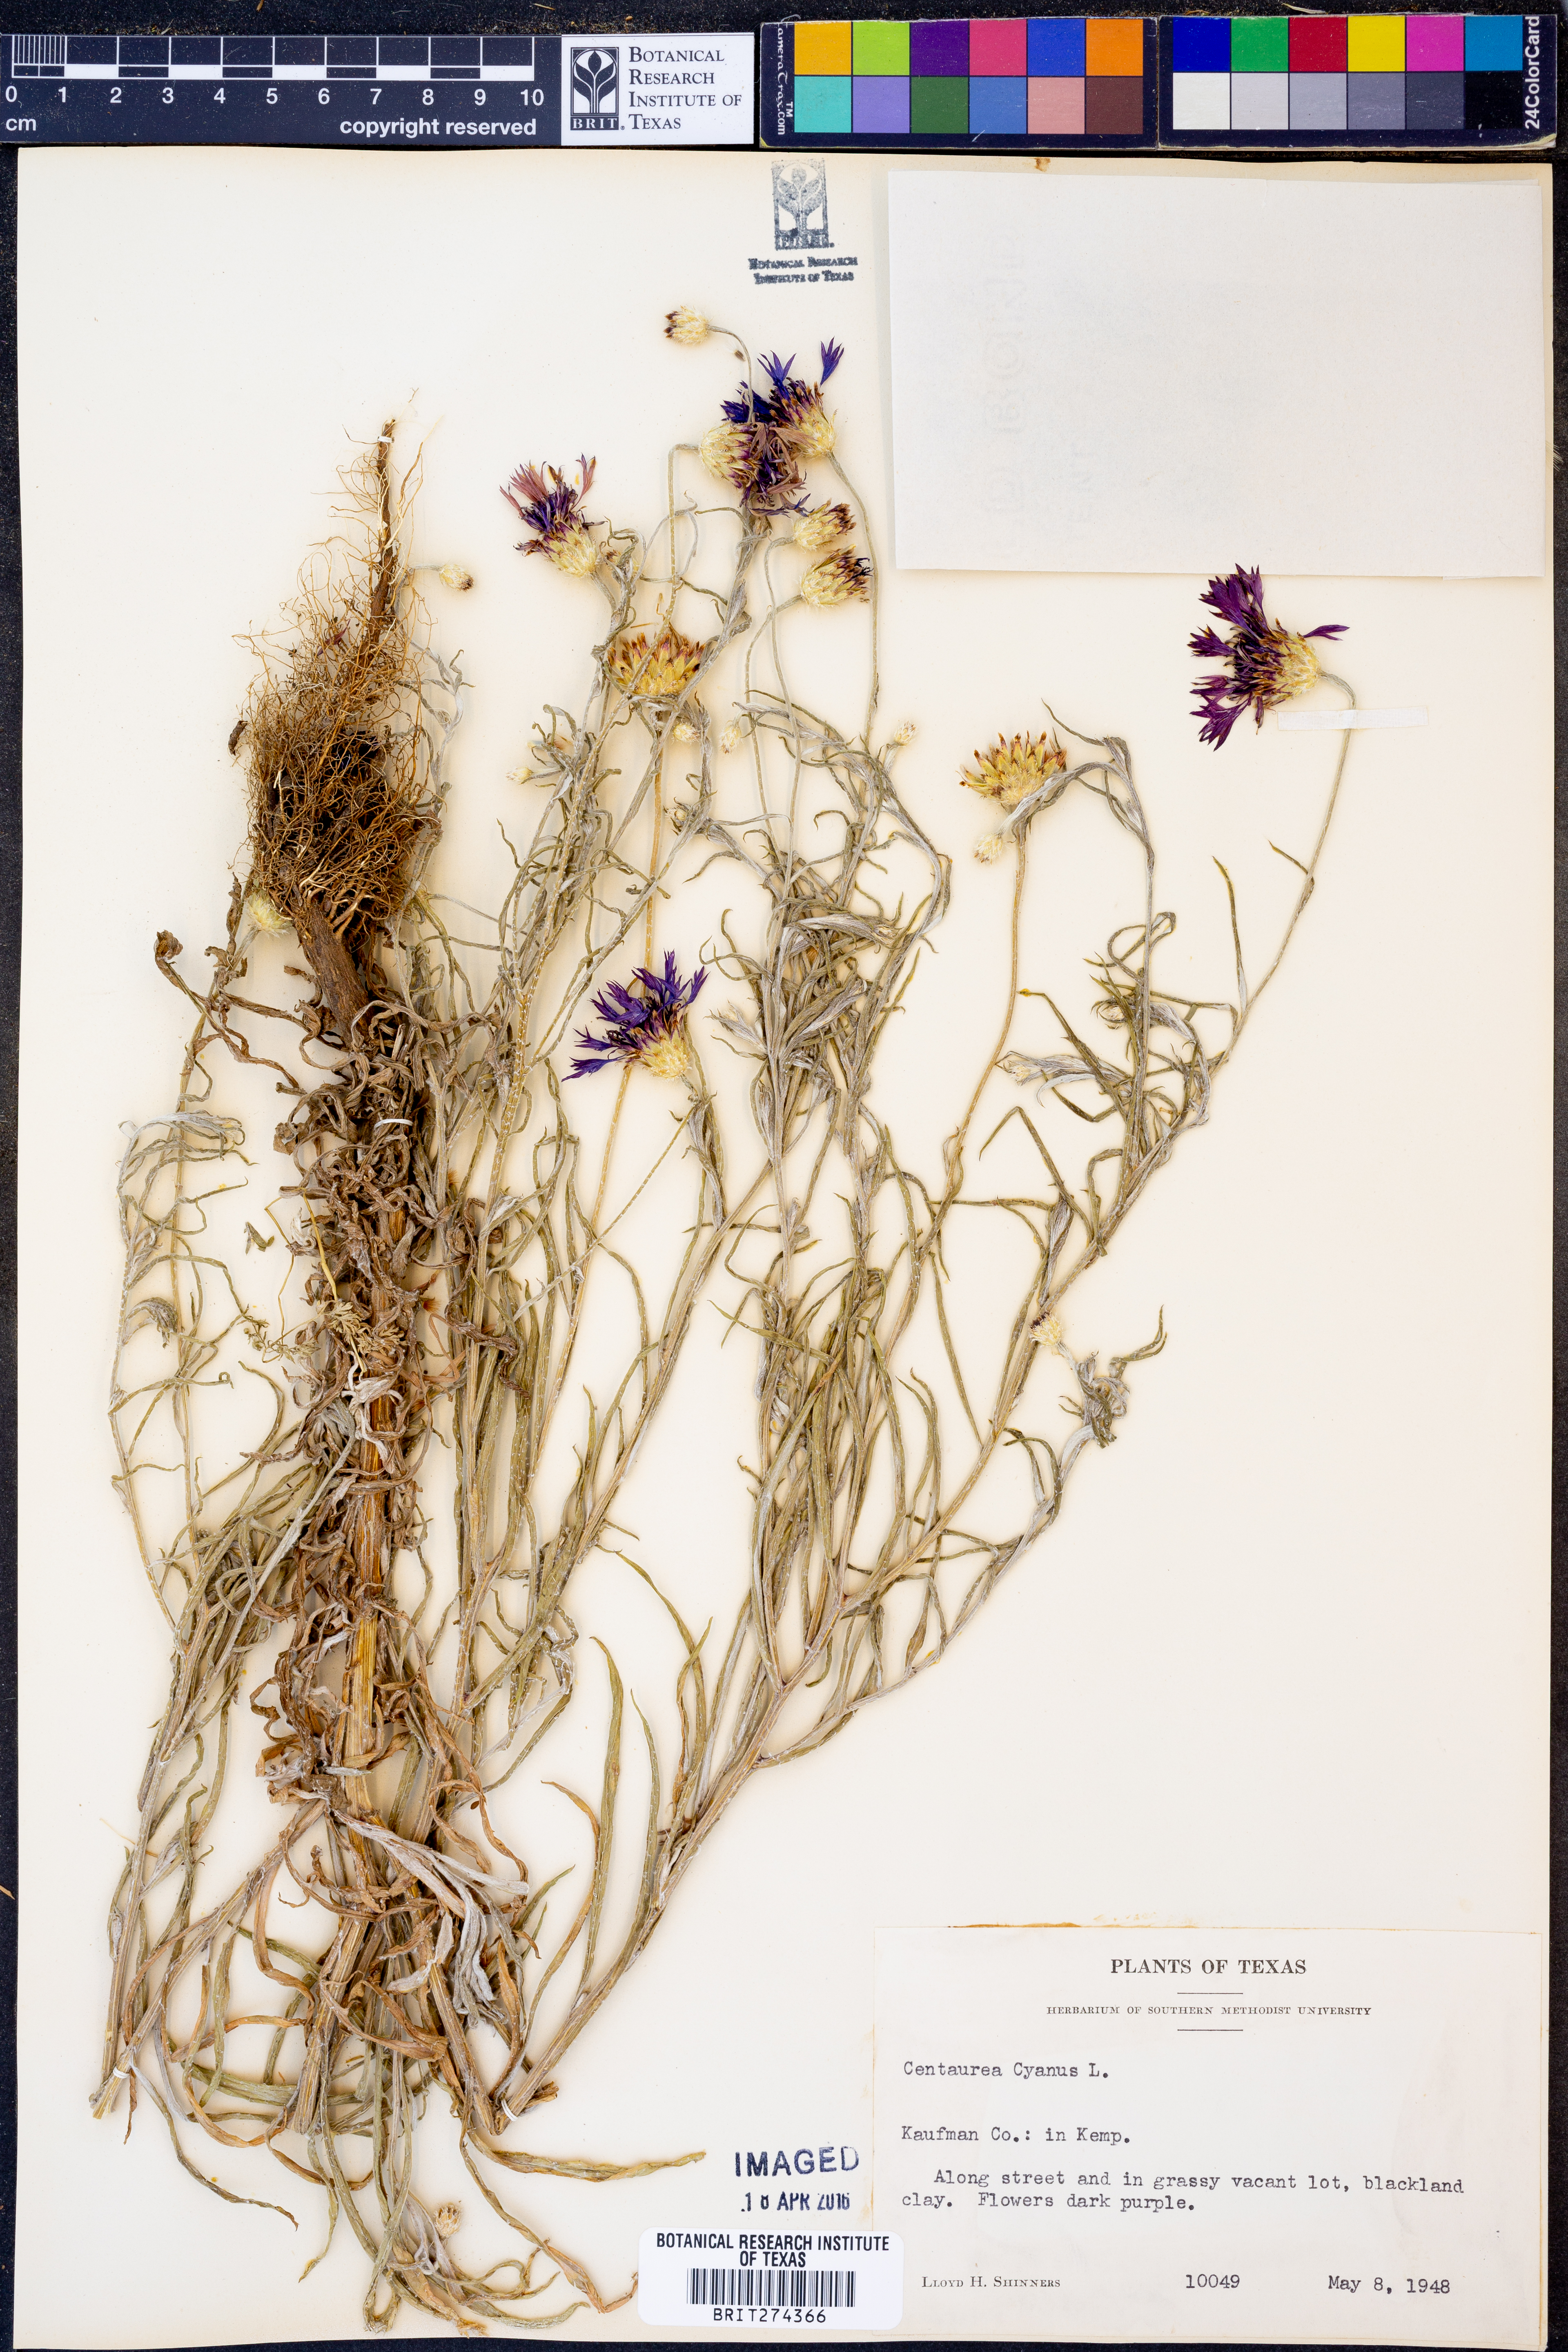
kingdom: Plantae
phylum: Tracheophyta
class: Magnoliopsida
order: Asterales
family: Asteraceae
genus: Centaurea
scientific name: Centaurea cyanus
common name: Cornflower
